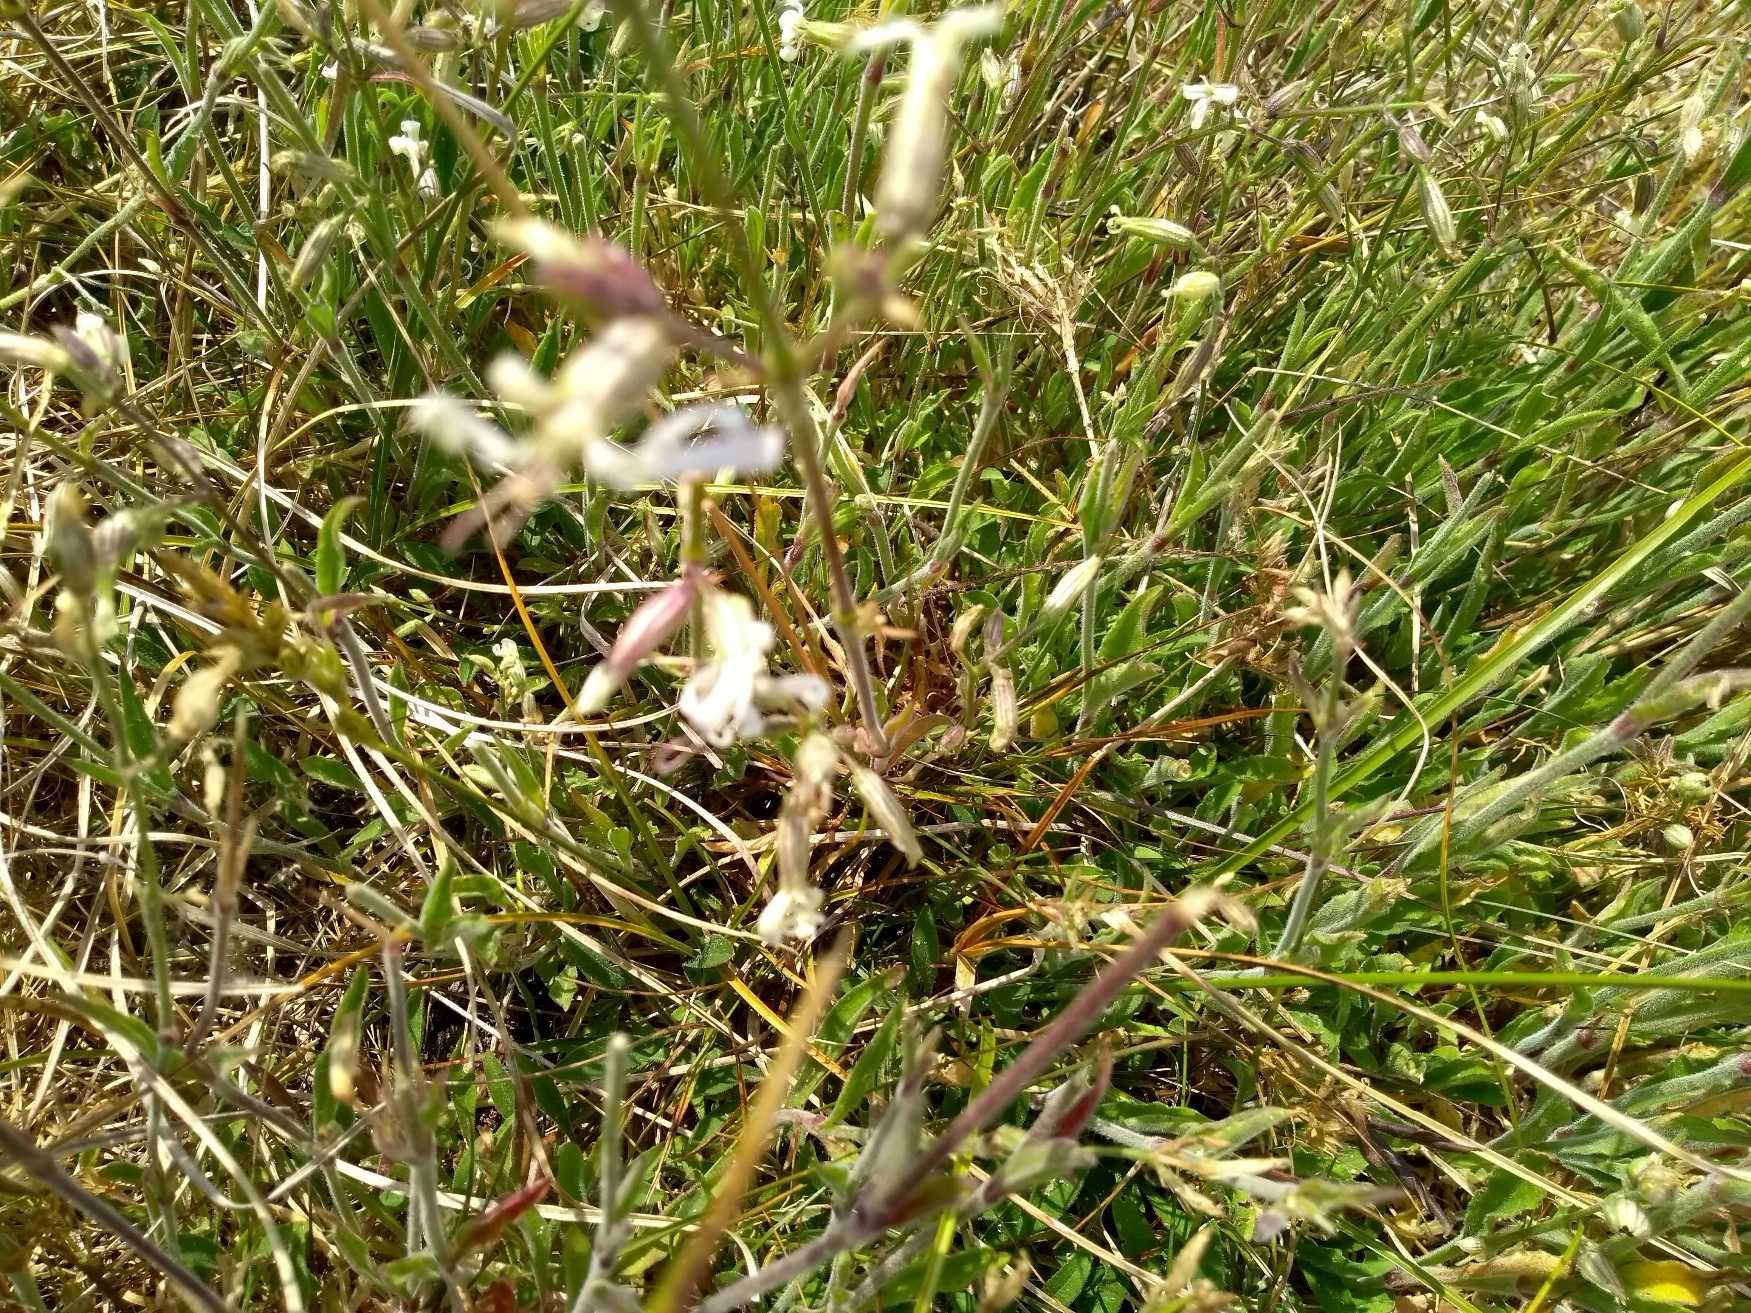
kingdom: Plantae
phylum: Tracheophyta
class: Magnoliopsida
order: Caryophyllales
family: Caryophyllaceae
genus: Silene
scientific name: Silene nutans
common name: Nikkende limurt
